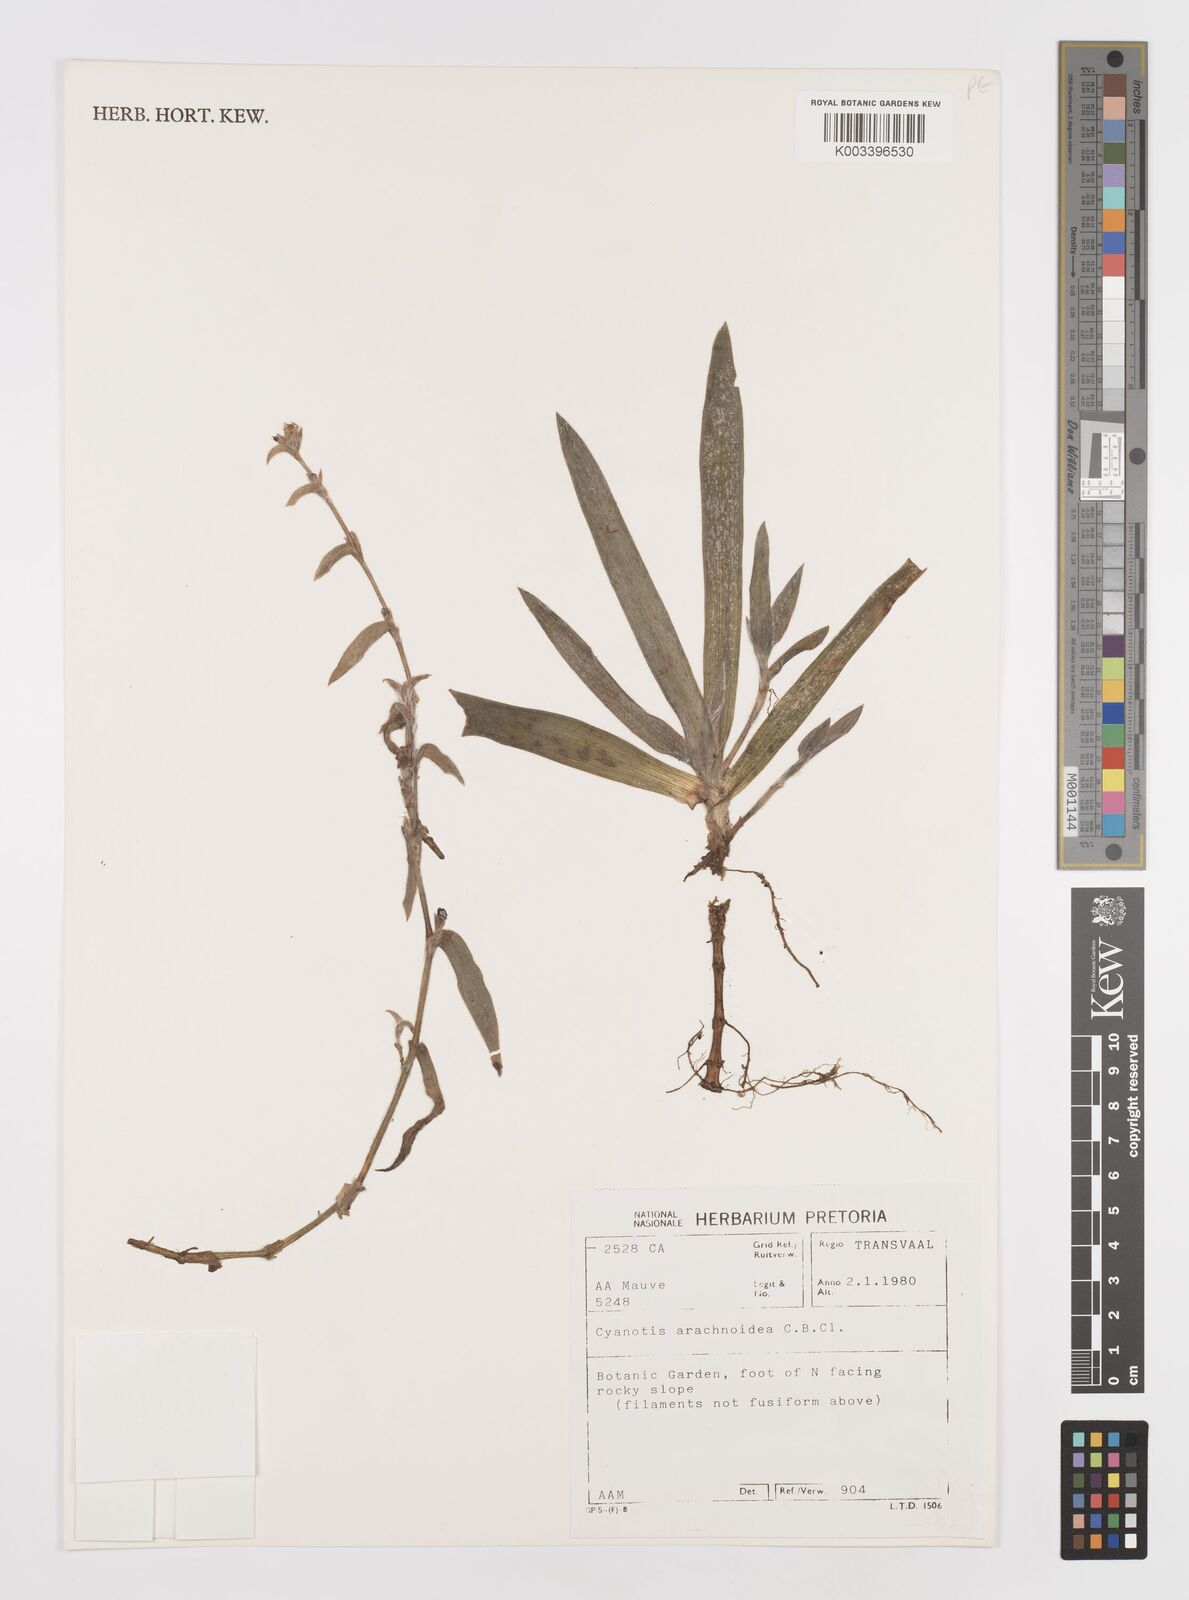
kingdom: Plantae
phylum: Tracheophyta
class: Liliopsida
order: Commelinales
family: Commelinaceae
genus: Cyanotis
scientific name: Cyanotis lapidosa
